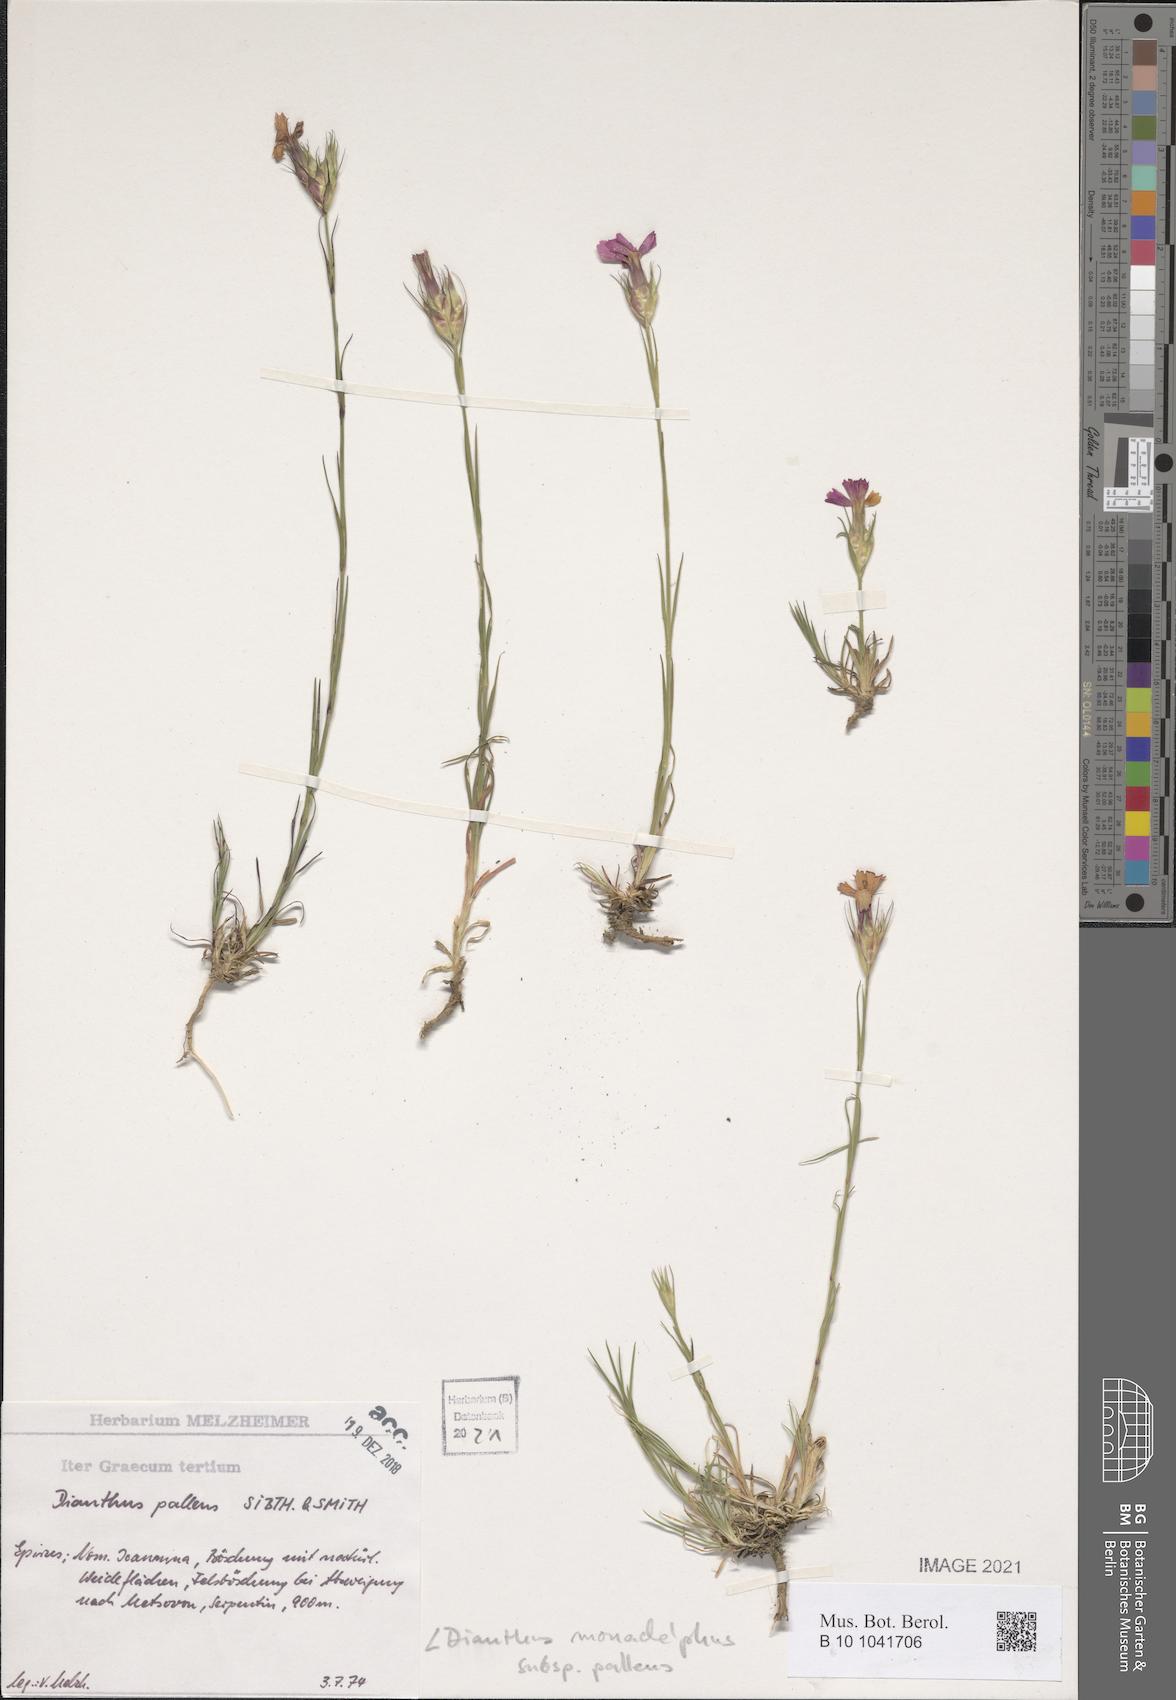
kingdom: Plantae
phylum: Tracheophyta
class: Magnoliopsida
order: Caryophyllales
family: Caryophyllaceae
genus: Dianthus
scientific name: Dianthus monadelphus
